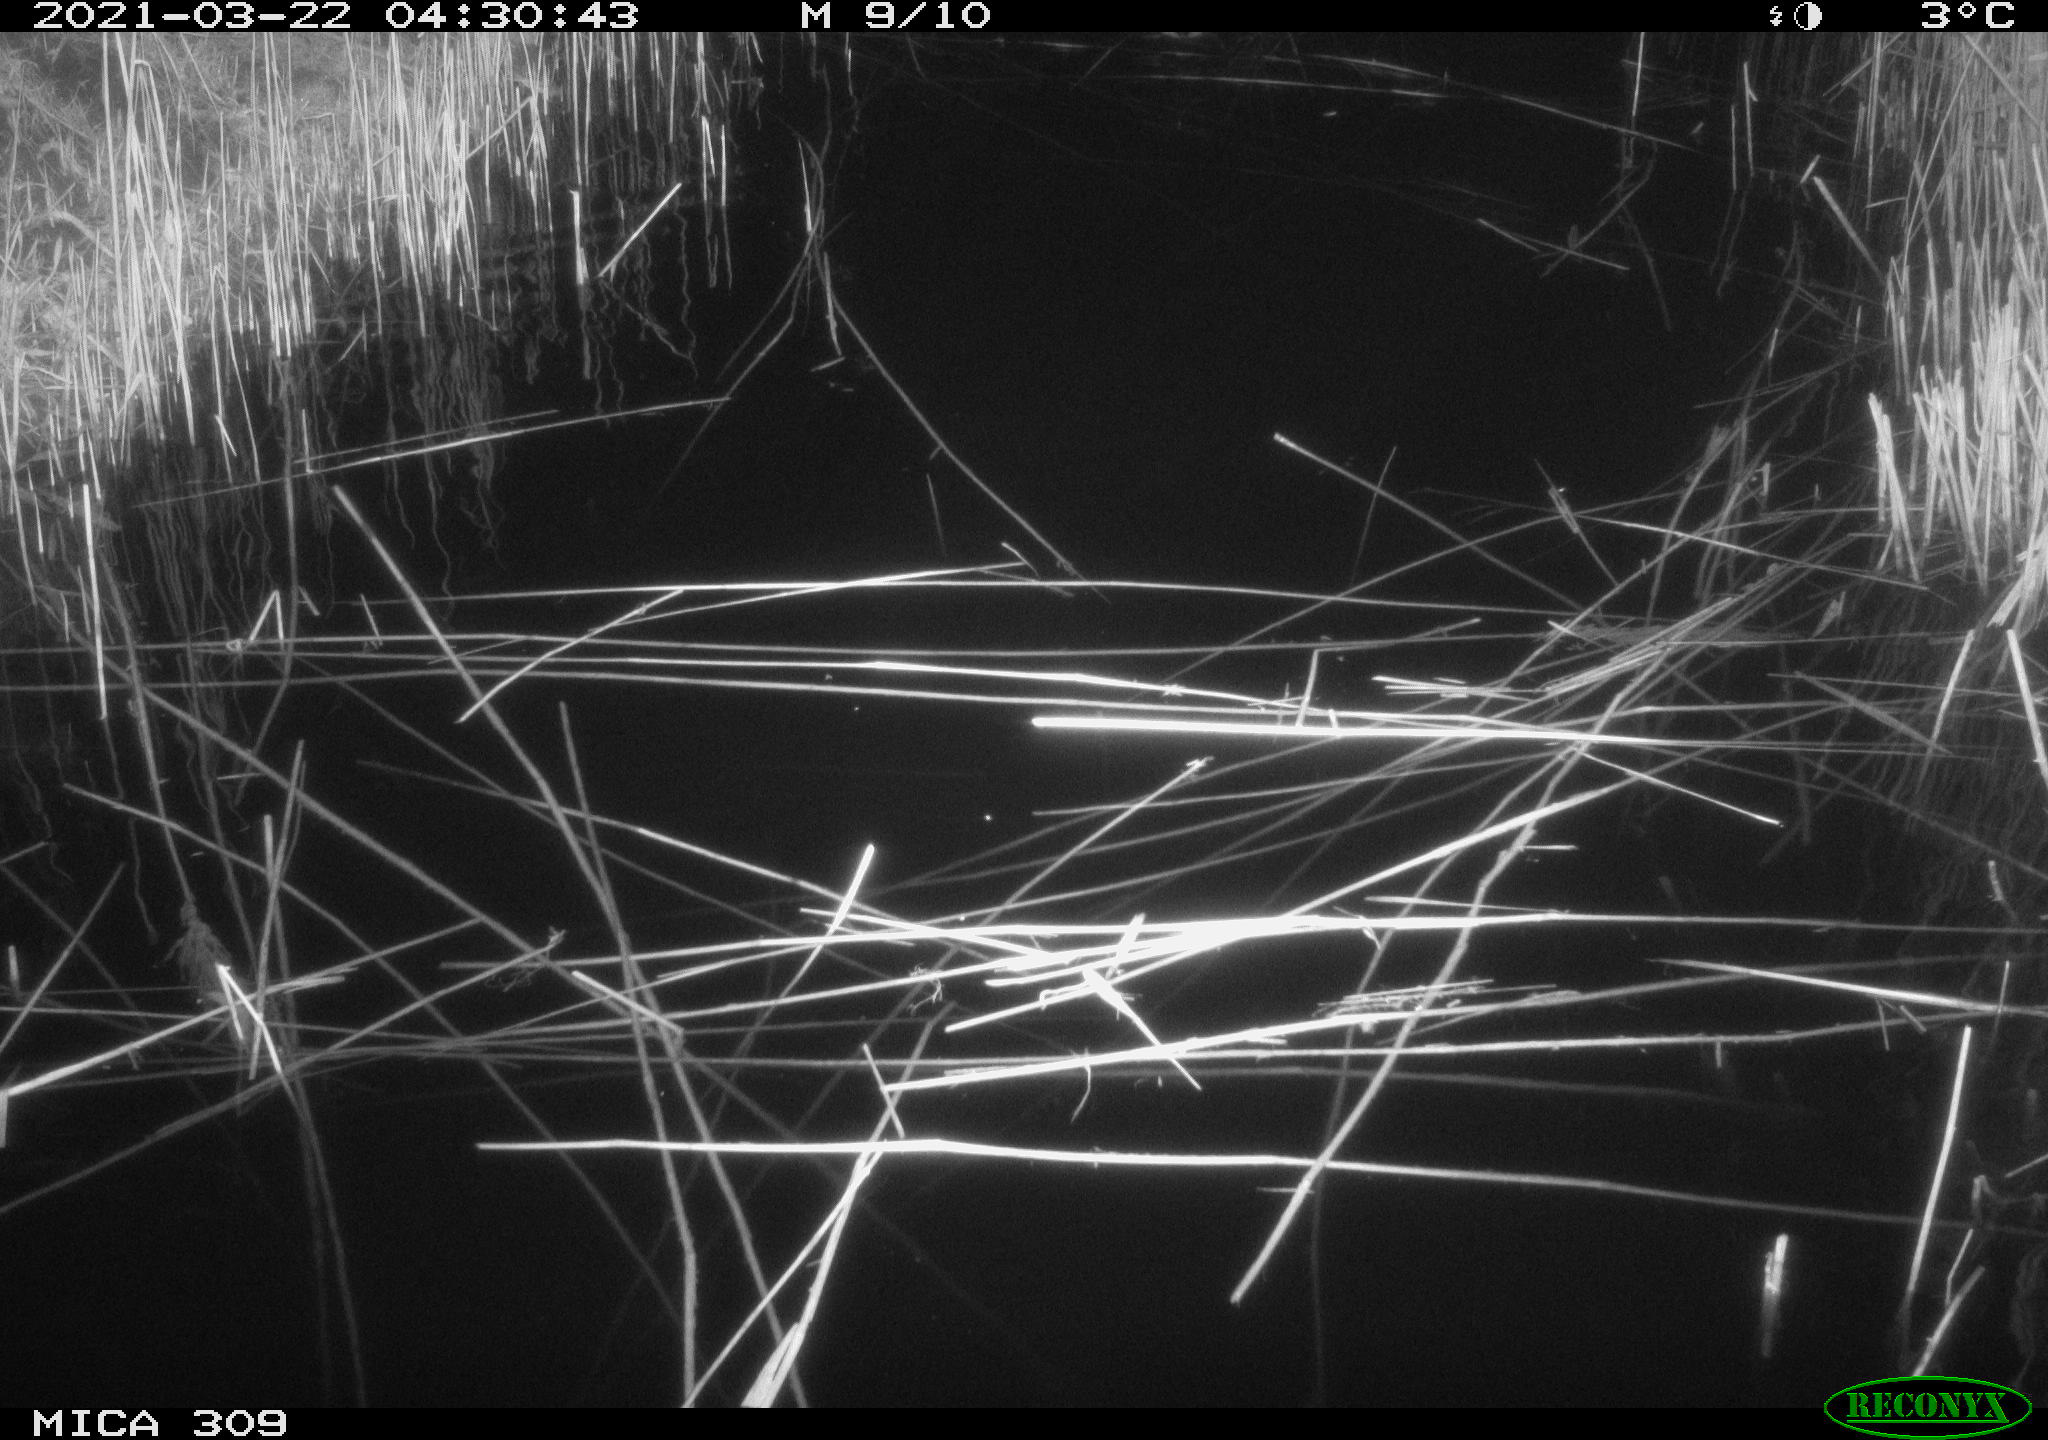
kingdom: Animalia
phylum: Chordata
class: Aves
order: Anseriformes
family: Anatidae
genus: Anas
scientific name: Anas platyrhynchos
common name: Mallard
